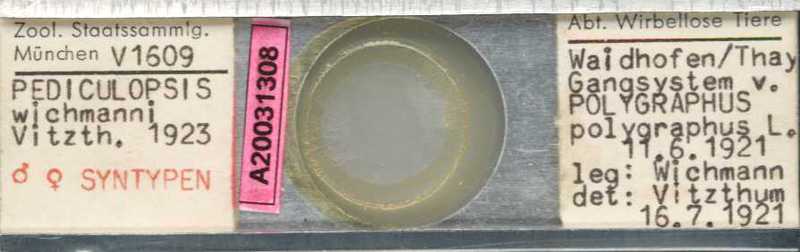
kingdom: Animalia
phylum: Arthropoda
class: Arachnida
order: Trombidiformes
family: Siteroptidae
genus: Pediculopsis
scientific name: Pediculopsis
